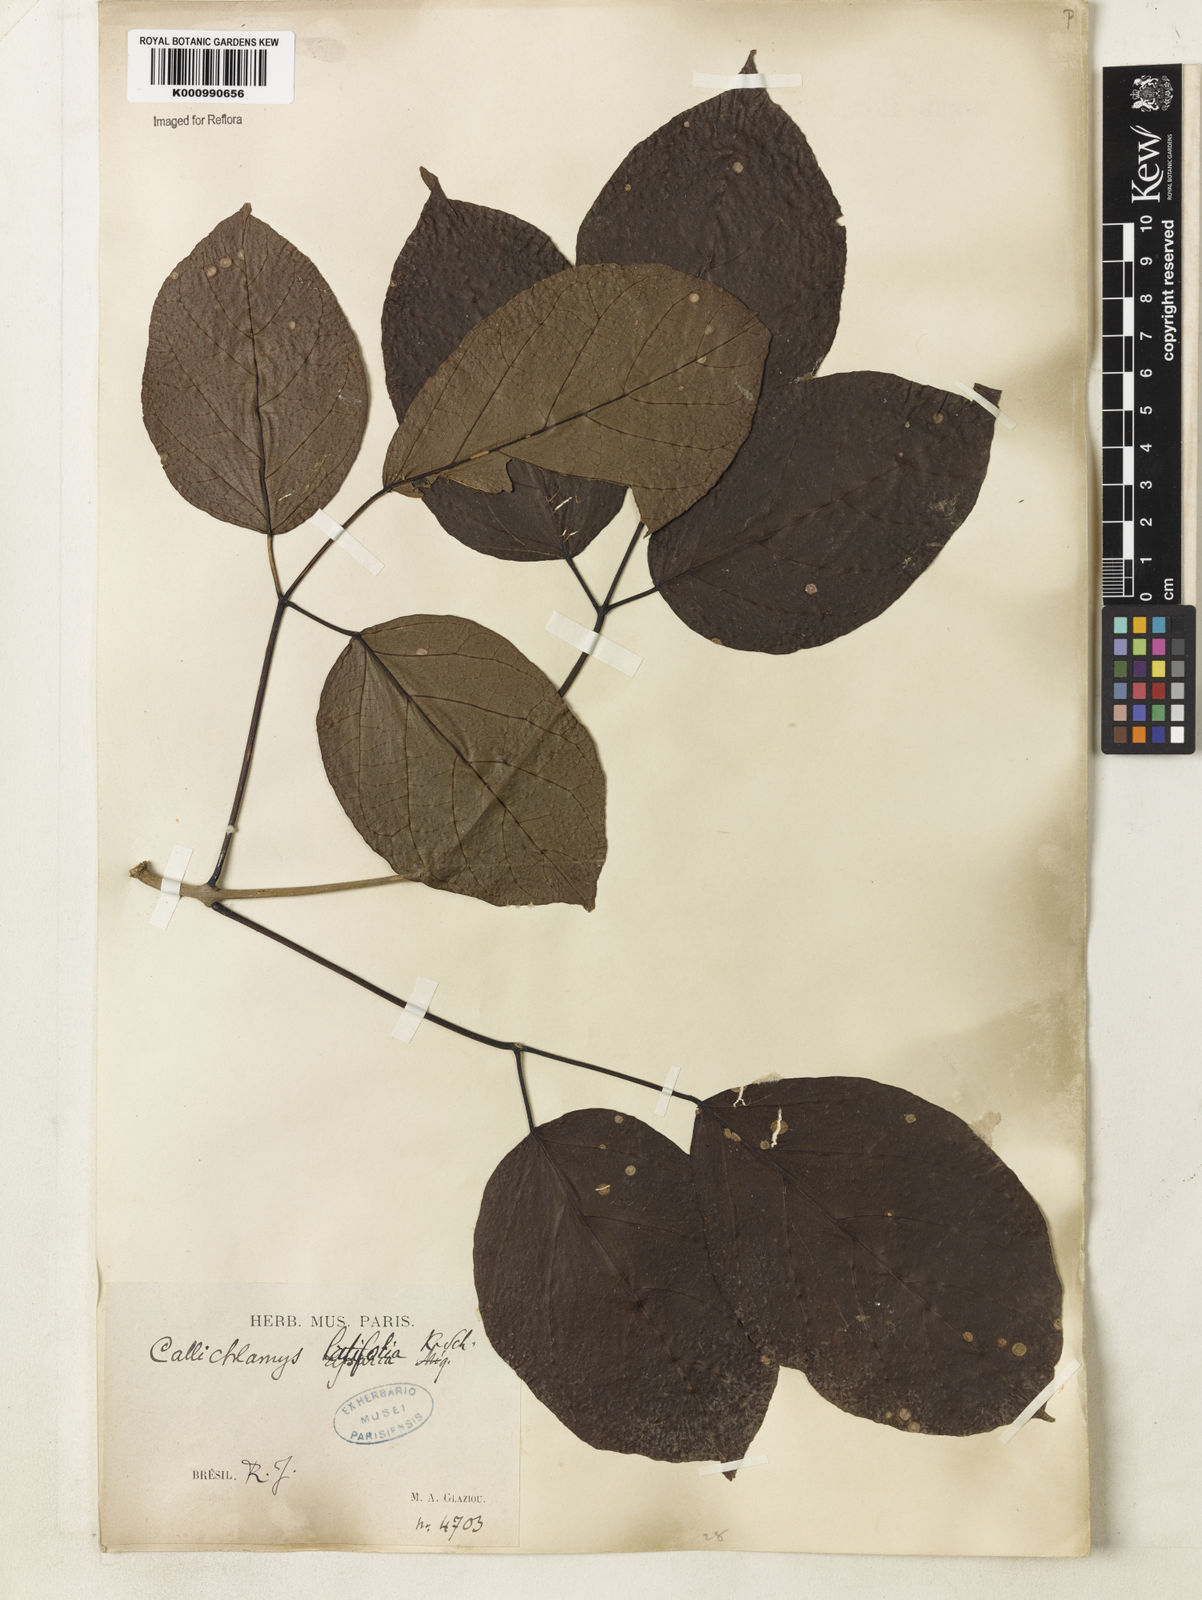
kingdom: Plantae
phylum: Tracheophyta
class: Magnoliopsida
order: Lamiales
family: Bignoniaceae
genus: Callichlamys
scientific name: Callichlamys latifolia
